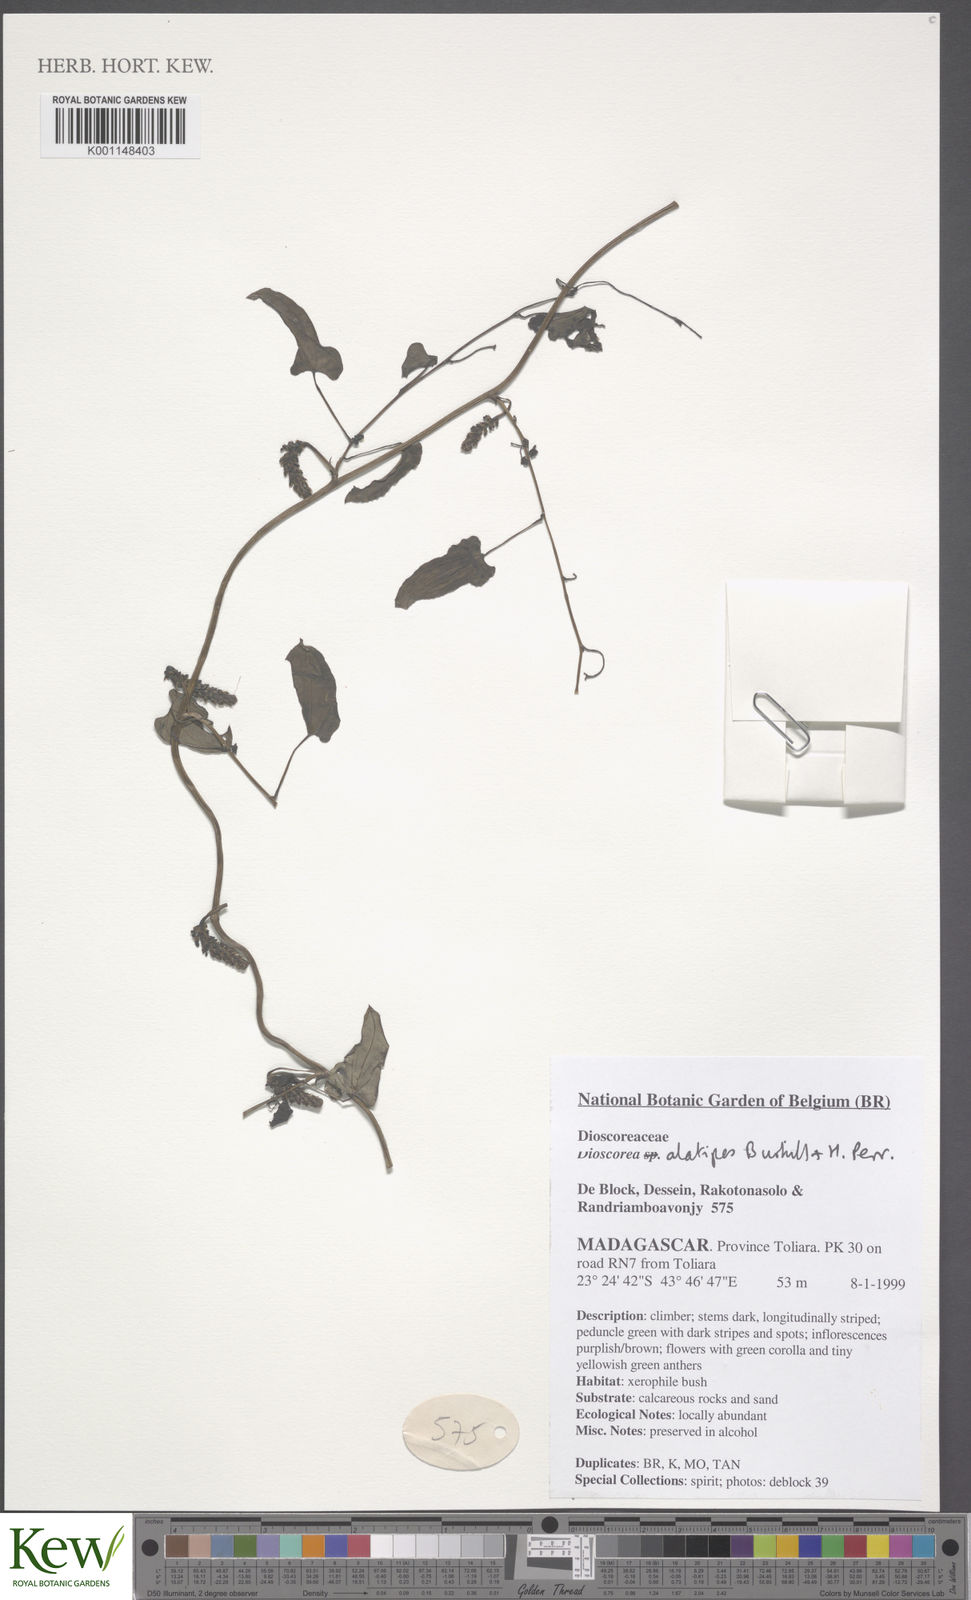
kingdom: Plantae
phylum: Tracheophyta
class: Liliopsida
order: Dioscoreales
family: Dioscoreaceae
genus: Dioscorea
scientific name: Dioscorea alatipes
